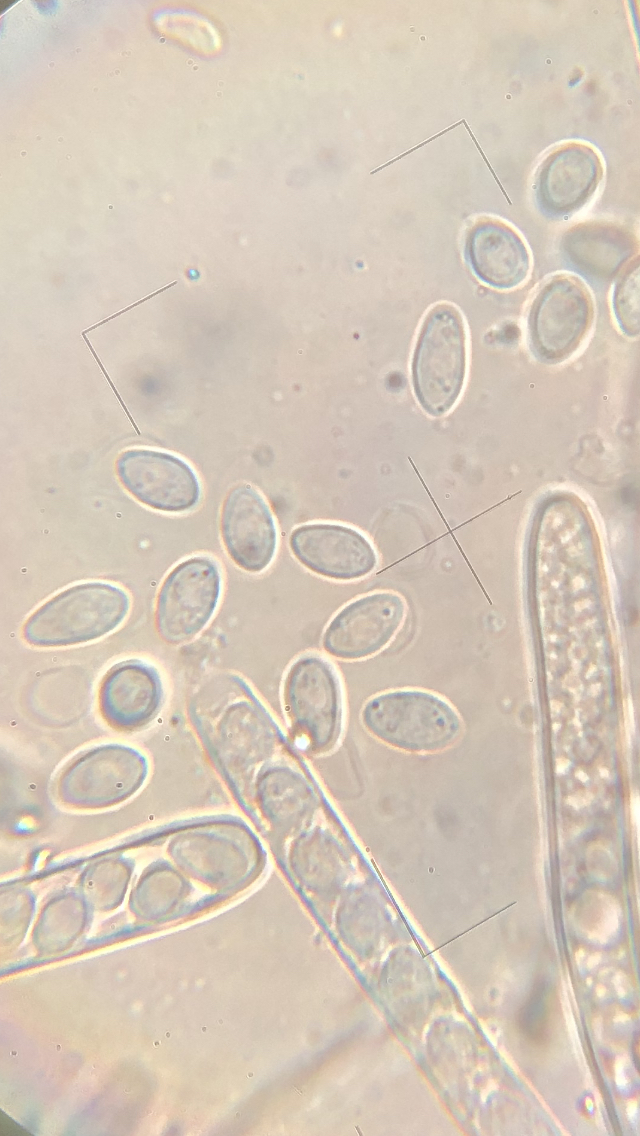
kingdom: Fungi
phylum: Ascomycota
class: Leotiomycetes
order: Helotiales
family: Sclerotiniaceae
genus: Ciboria
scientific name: Ciboria amentacea
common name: ellerakle-knoldskive
